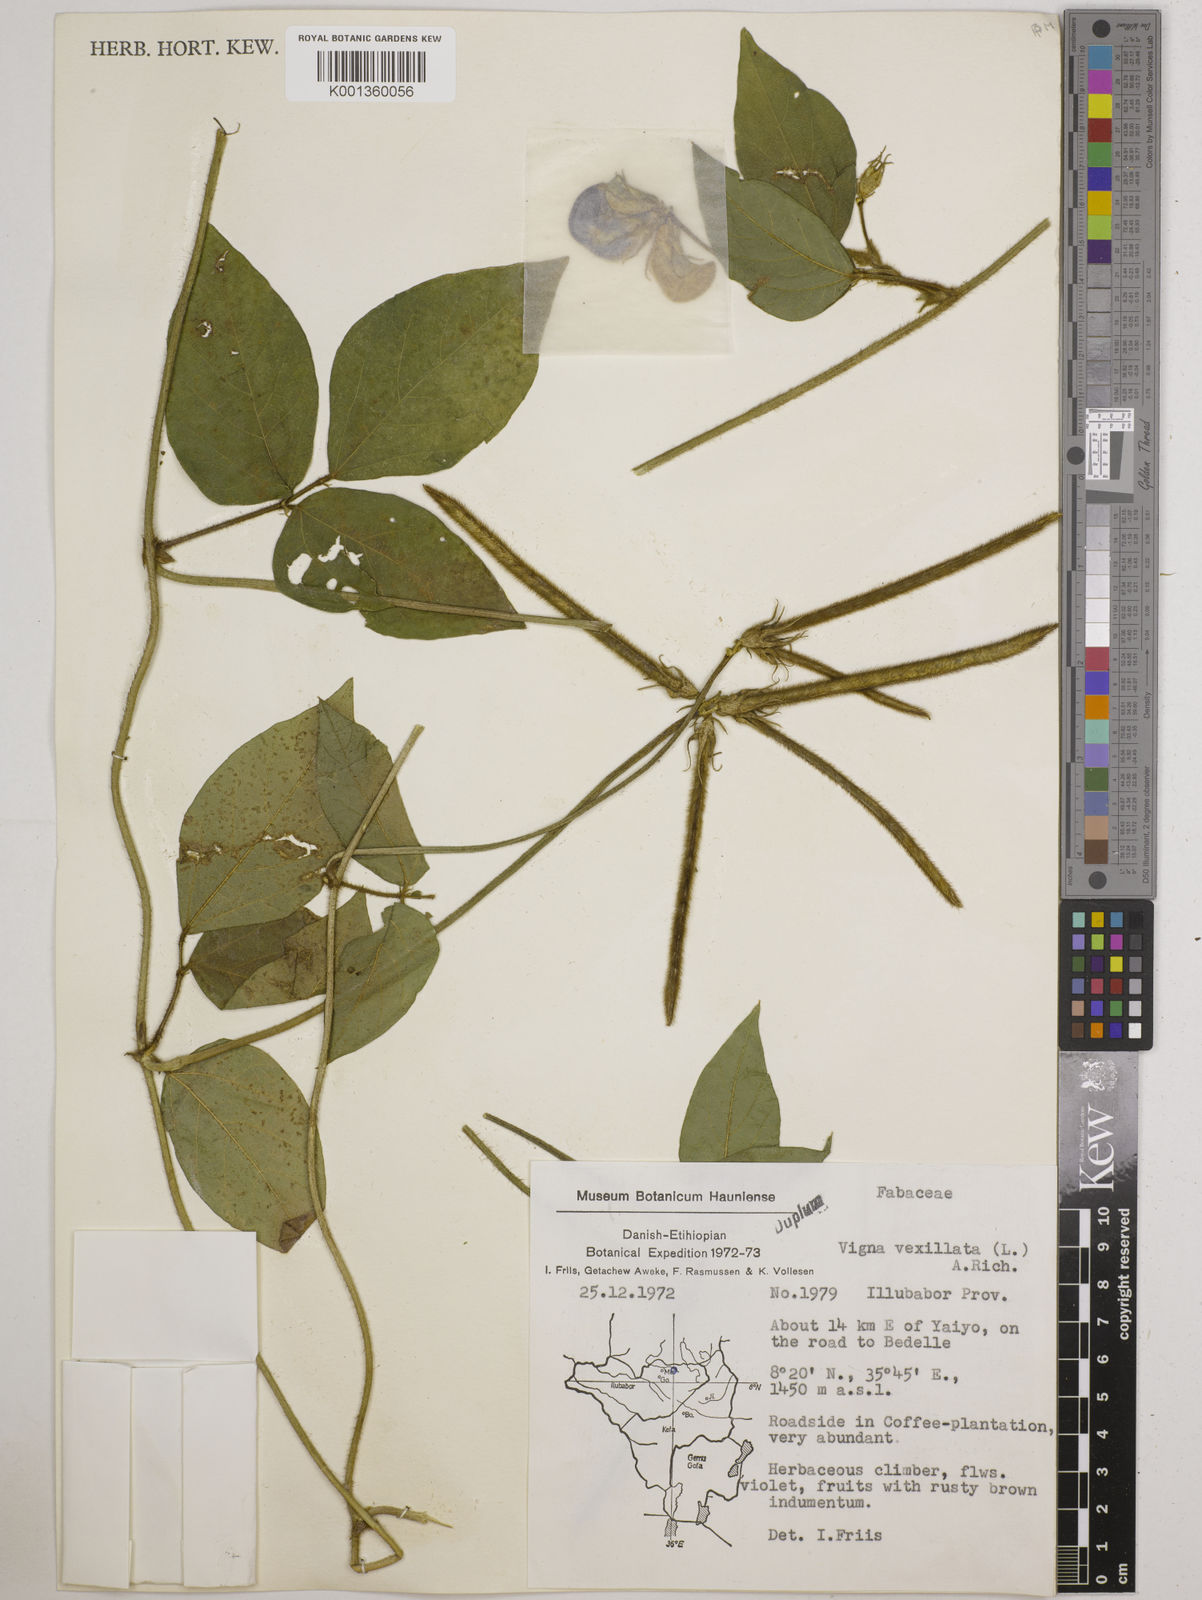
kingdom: Plantae
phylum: Tracheophyta
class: Magnoliopsida
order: Fabales
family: Fabaceae
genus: Vigna
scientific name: Vigna vexillata
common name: Zombi pea
